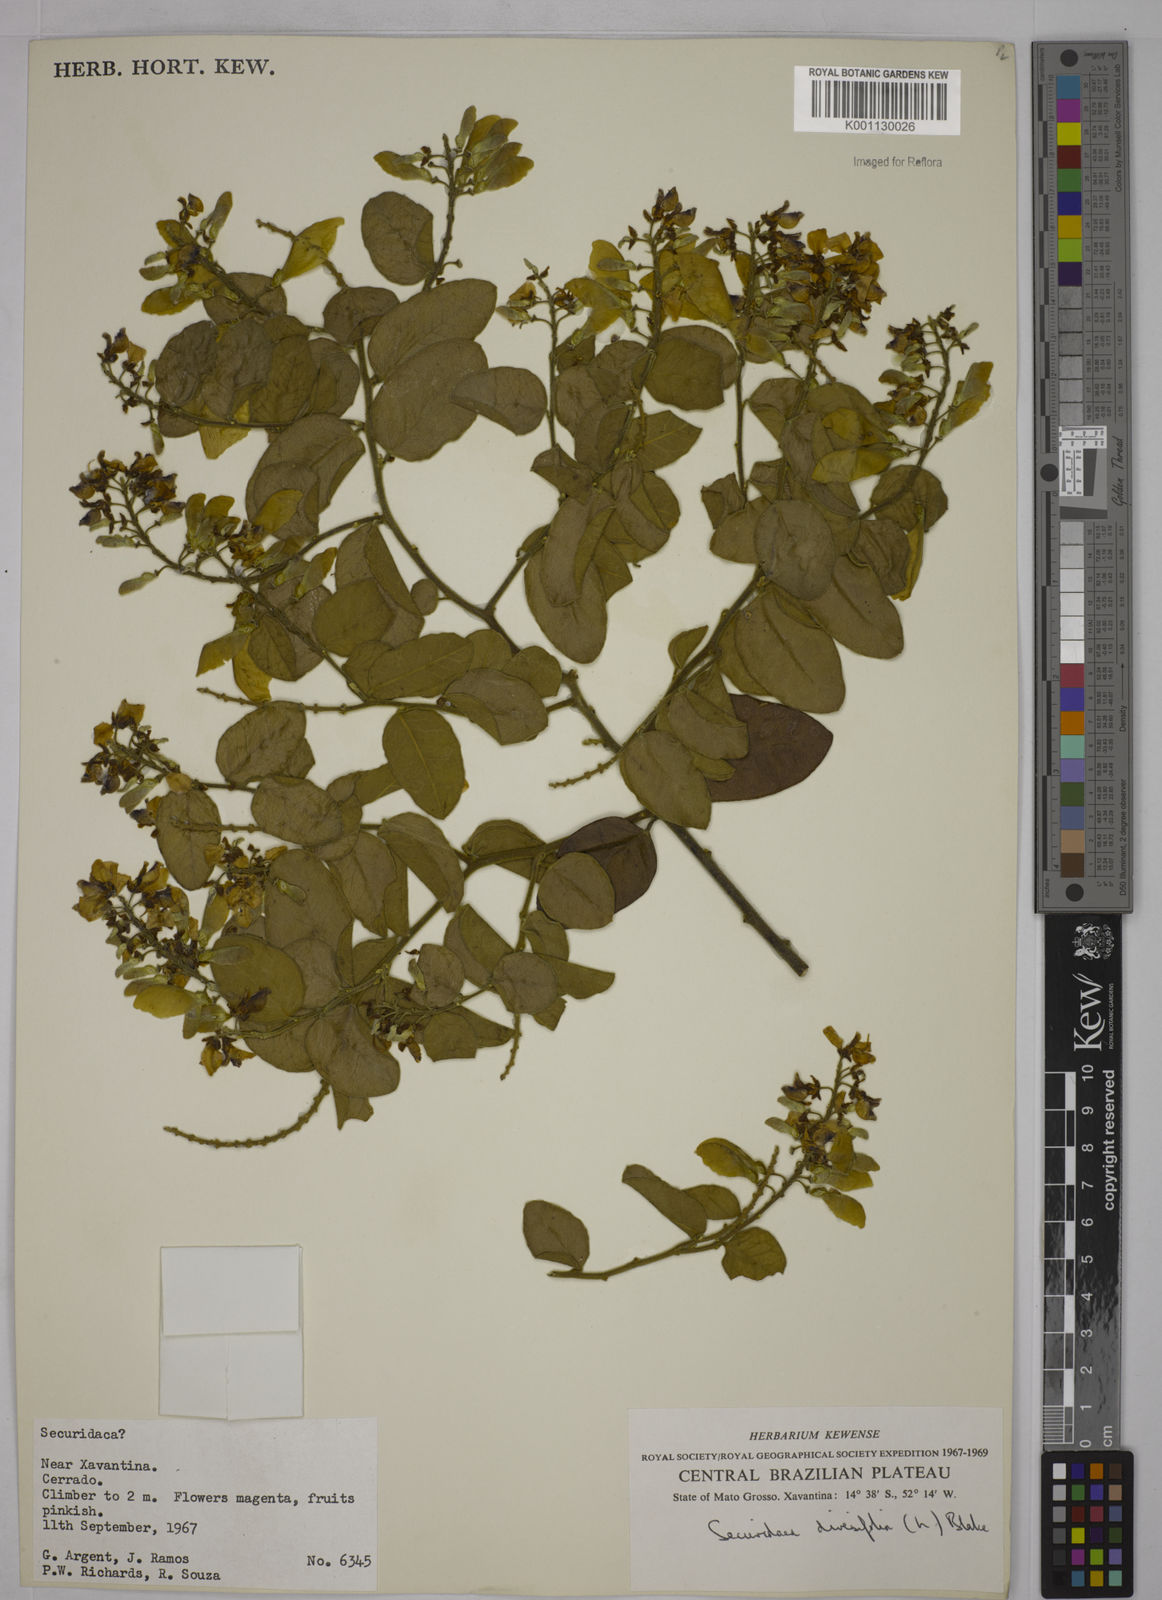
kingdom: Plantae
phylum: Tracheophyta
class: Magnoliopsida
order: Fabales
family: Polygalaceae
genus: Securidaca
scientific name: Securidaca diversifolia
